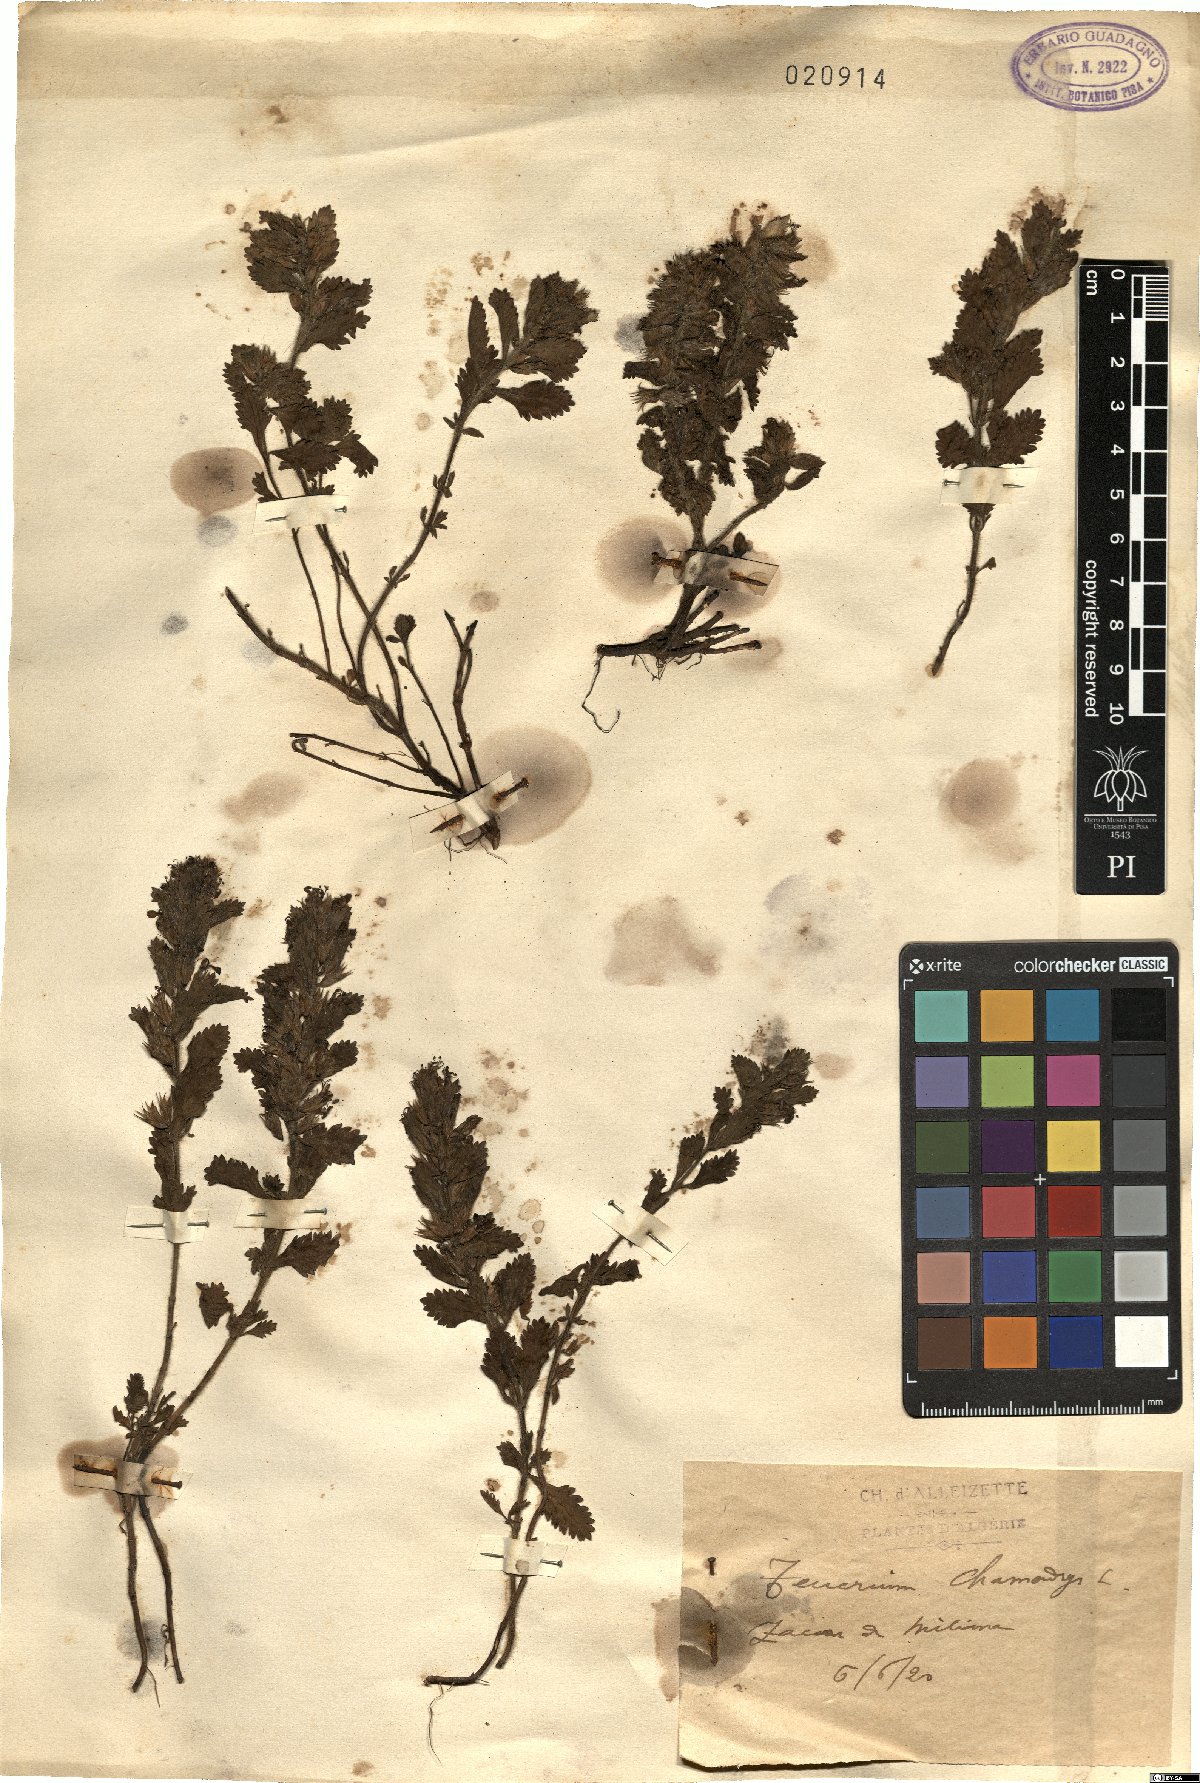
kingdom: Plantae
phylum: Tracheophyta
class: Magnoliopsida
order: Lamiales
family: Lamiaceae
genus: Teucrium
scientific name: Teucrium chamaedrys
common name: Wall germander
